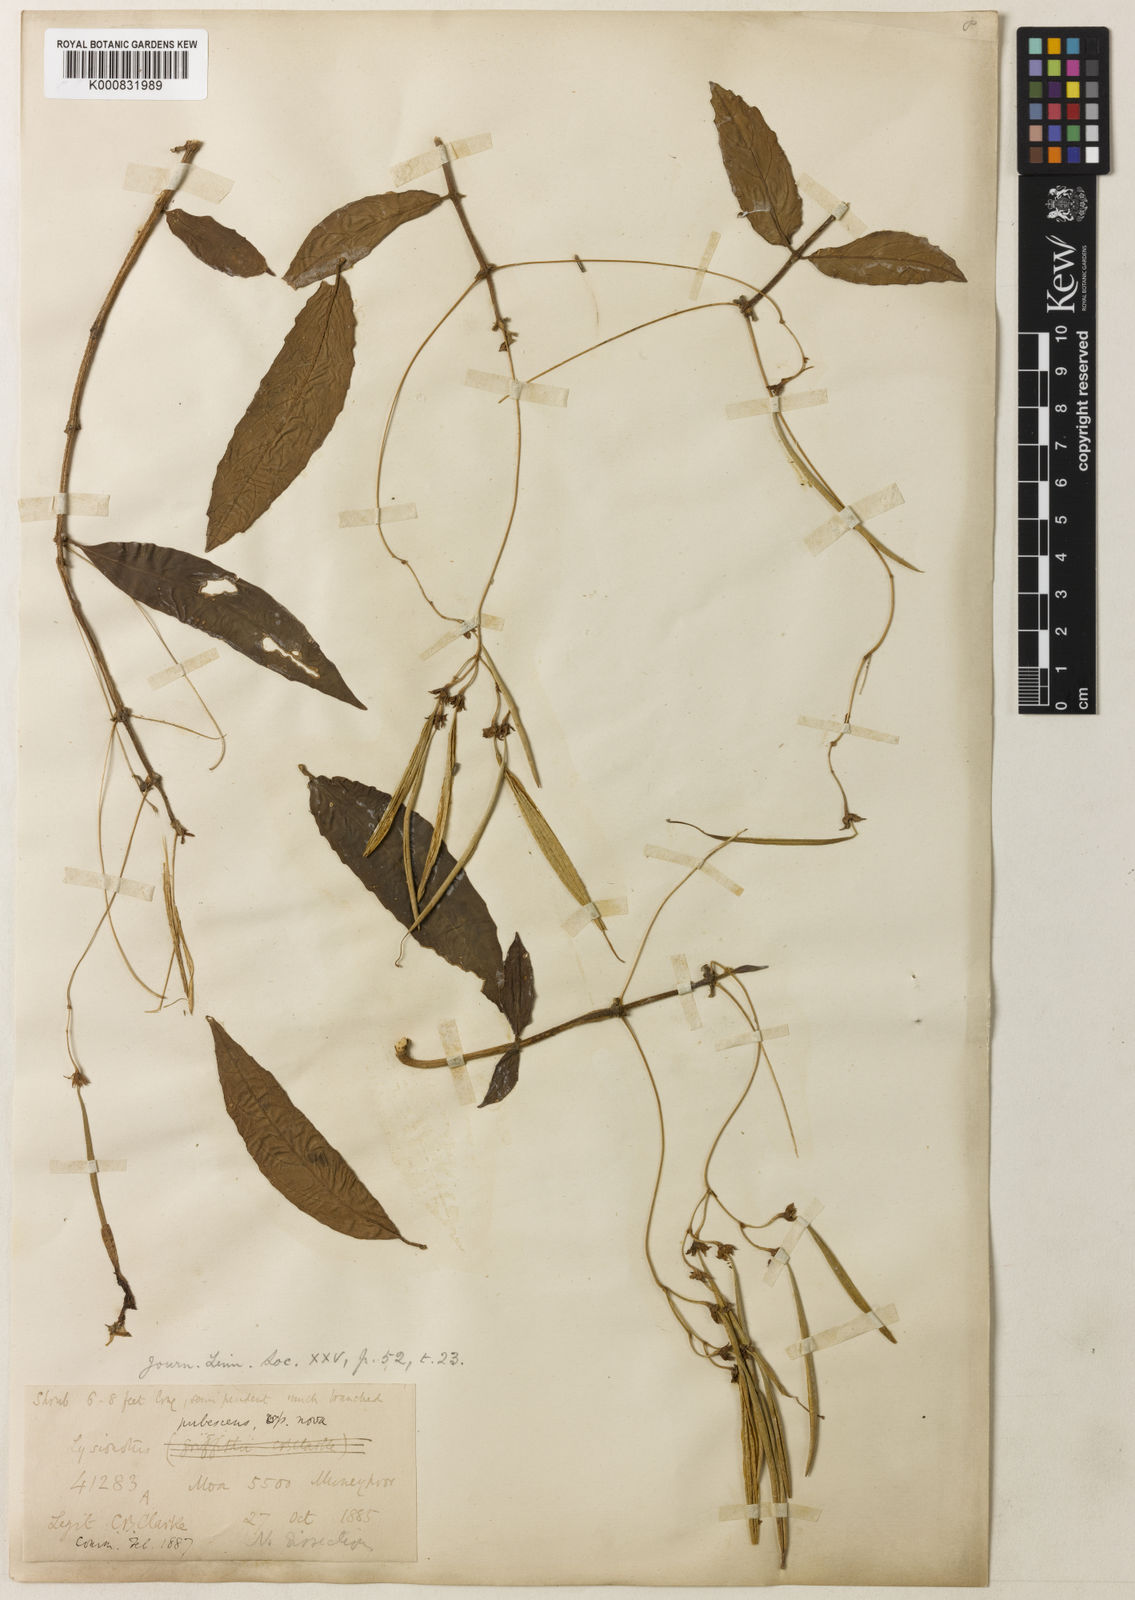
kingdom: Plantae
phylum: Tracheophyta
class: Magnoliopsida
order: Lamiales
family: Gesneriaceae
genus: Lysionotus
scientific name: Lysionotus pubescens
